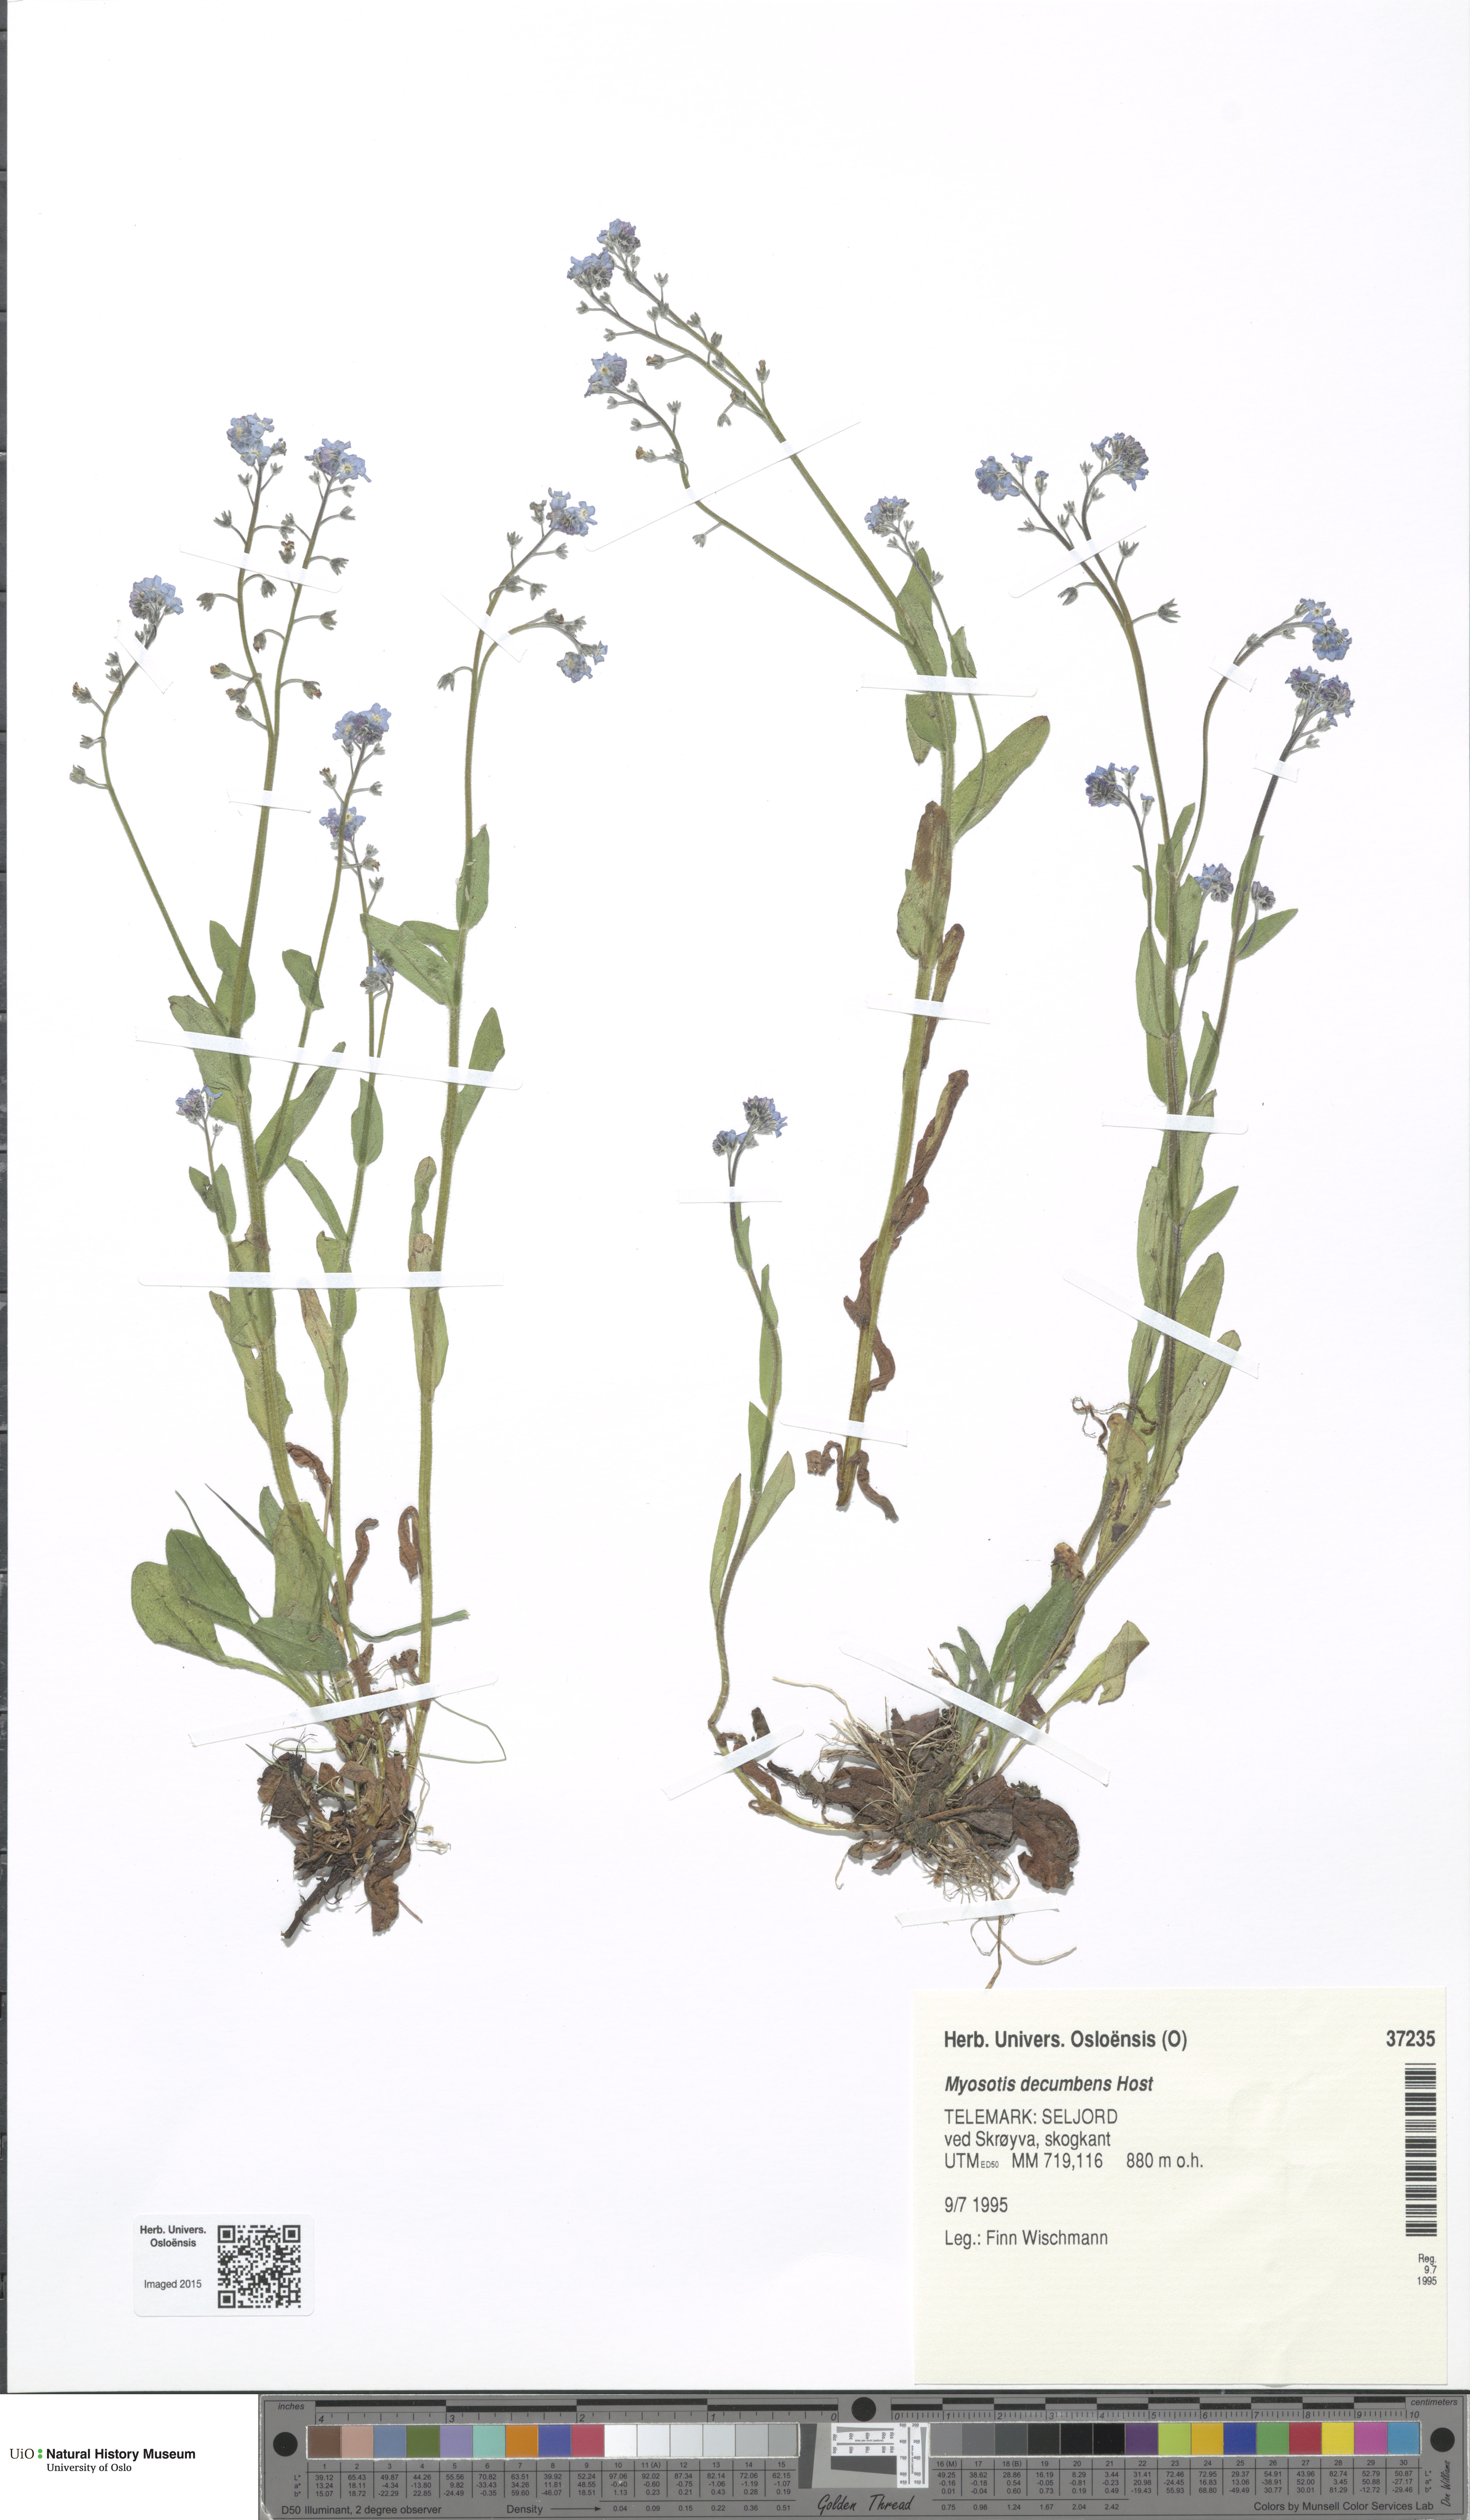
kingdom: Plantae
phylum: Tracheophyta
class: Magnoliopsida
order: Boraginales
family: Boraginaceae
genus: Myosotis
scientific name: Myosotis decumbens
